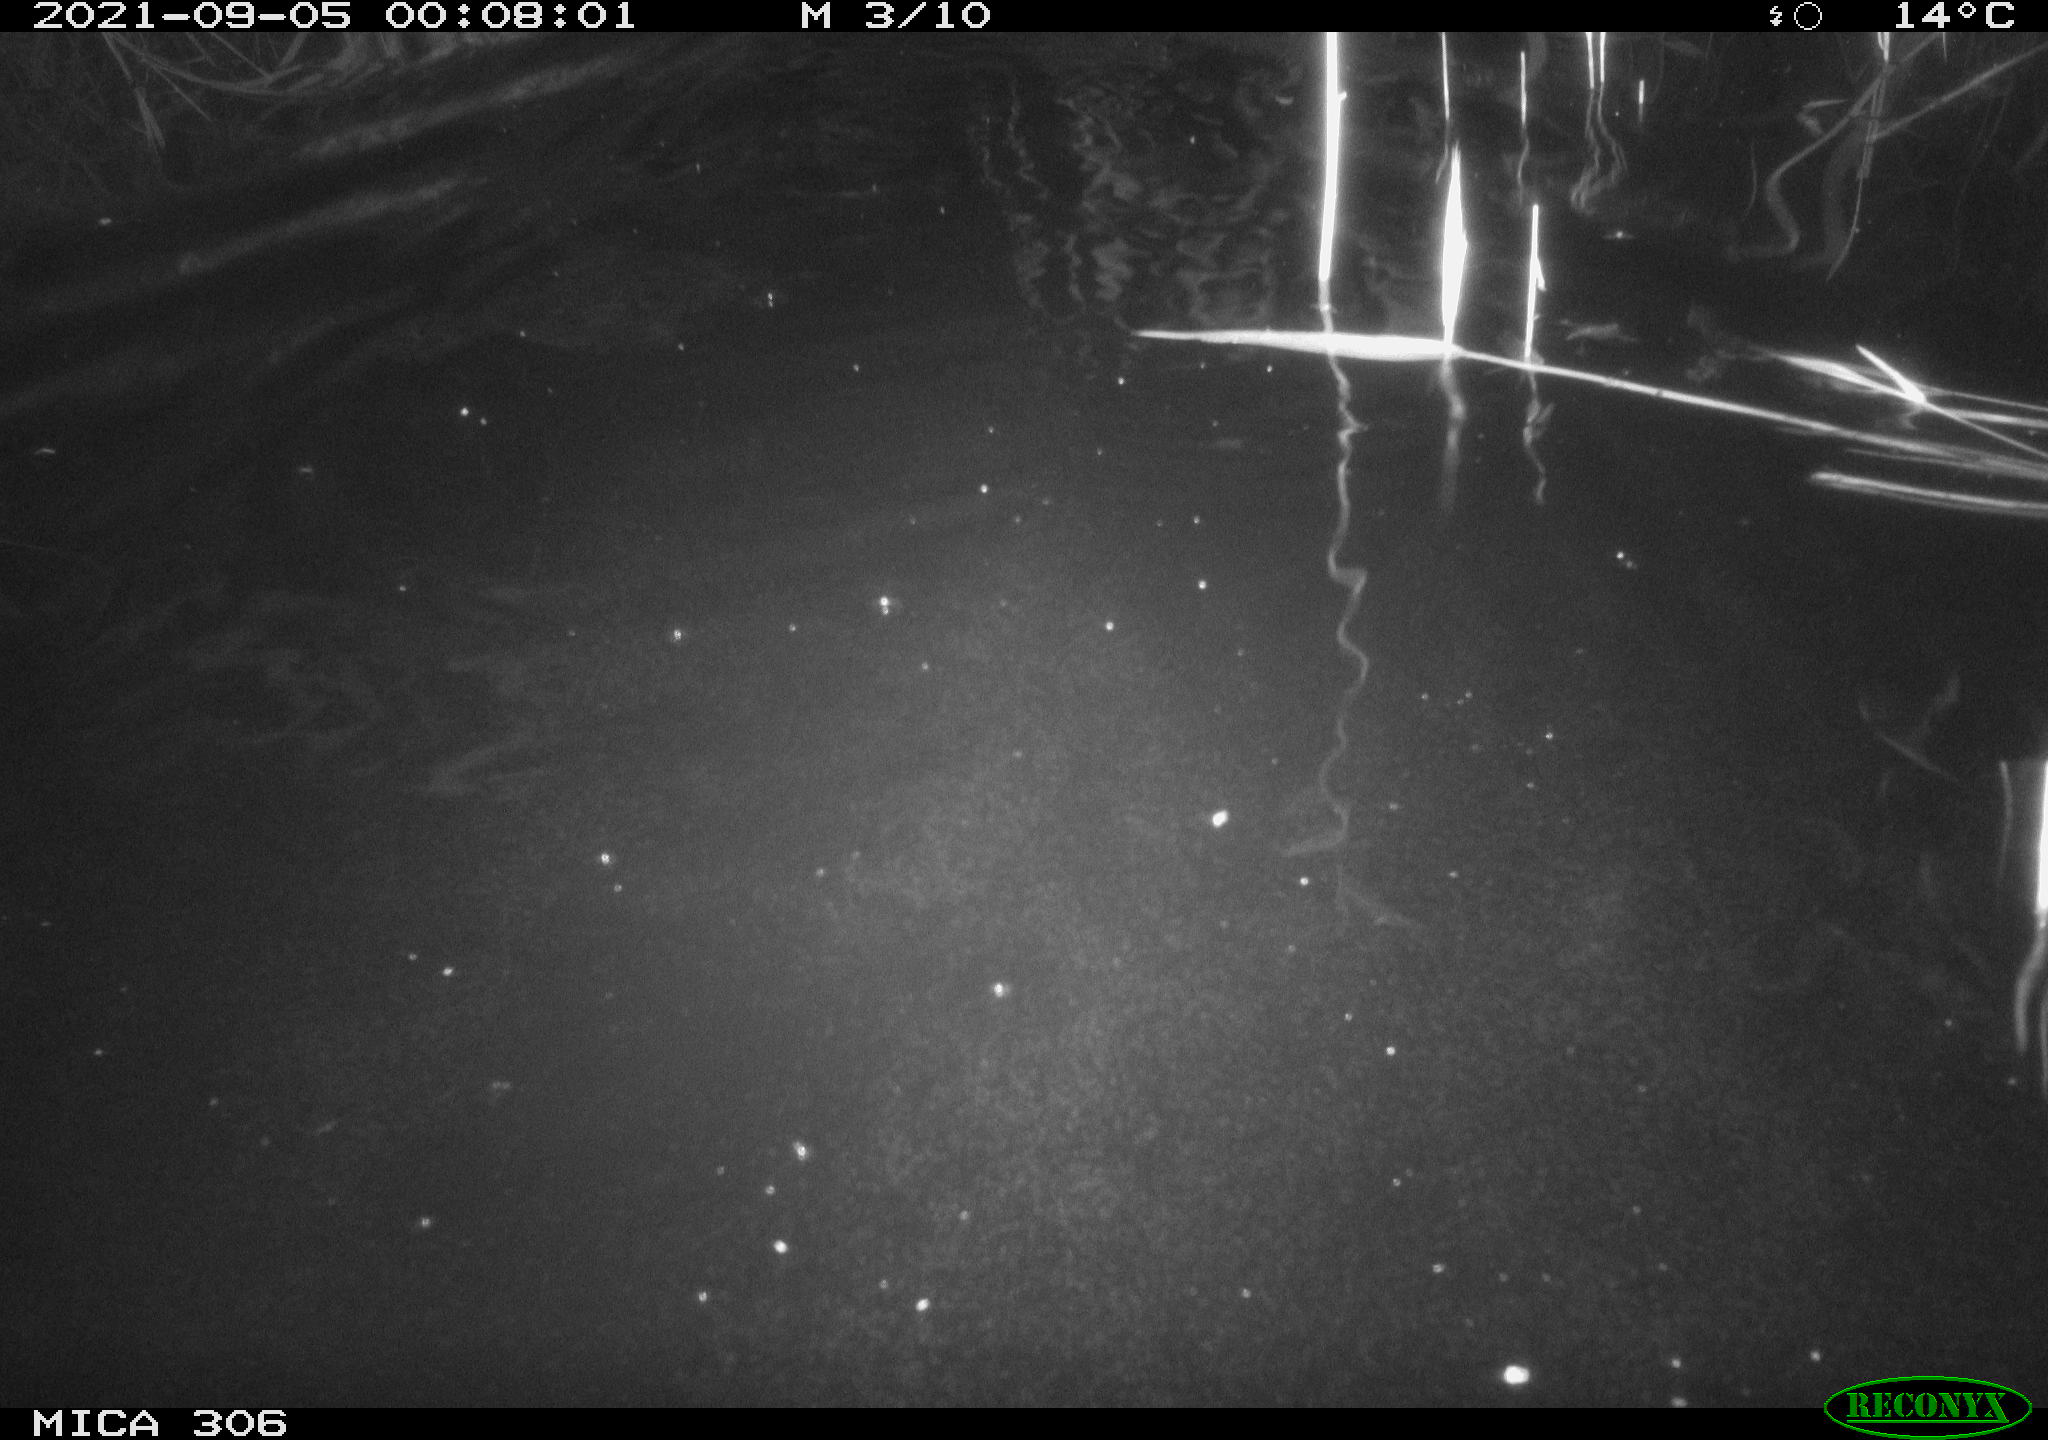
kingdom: Animalia
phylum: Chordata
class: Mammalia
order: Rodentia
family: Cricetidae
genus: Ondatra
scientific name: Ondatra zibethicus
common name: Muskrat
